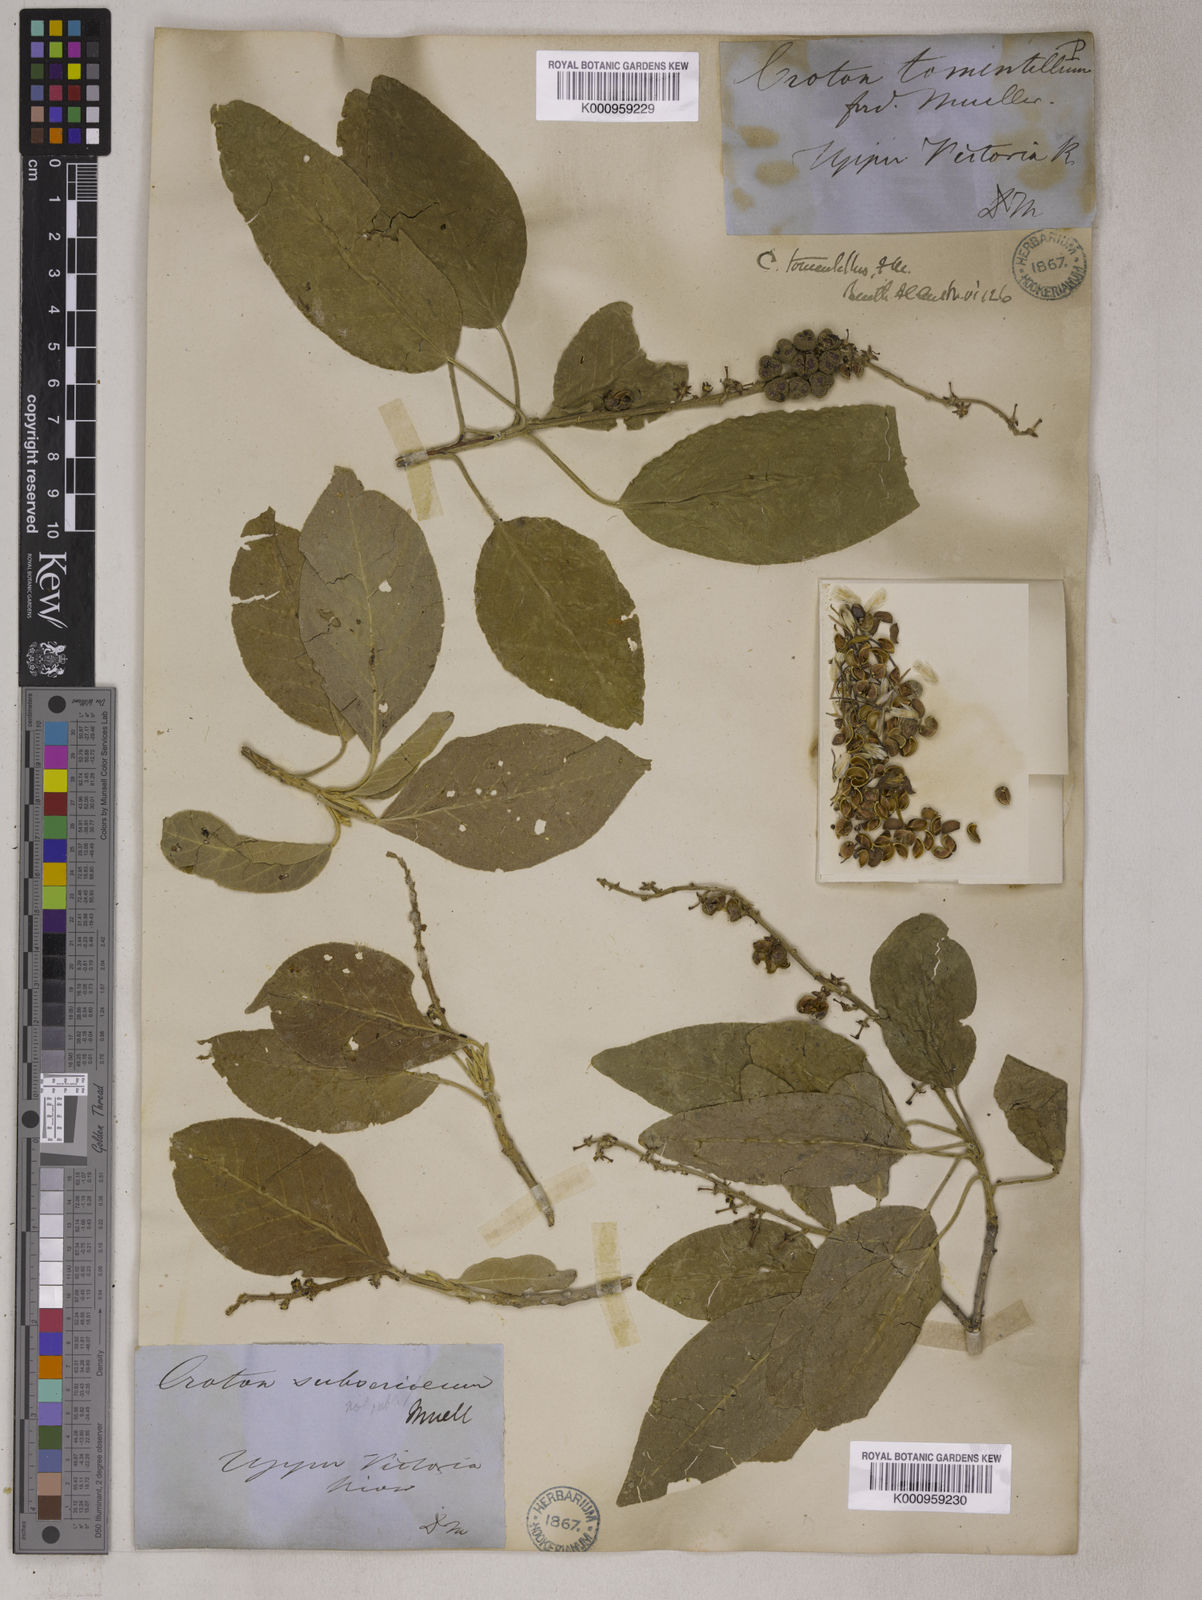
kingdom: Plantae
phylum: Tracheophyta
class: Magnoliopsida
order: Malpighiales
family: Euphorbiaceae
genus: Croton
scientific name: Croton tomentellus
